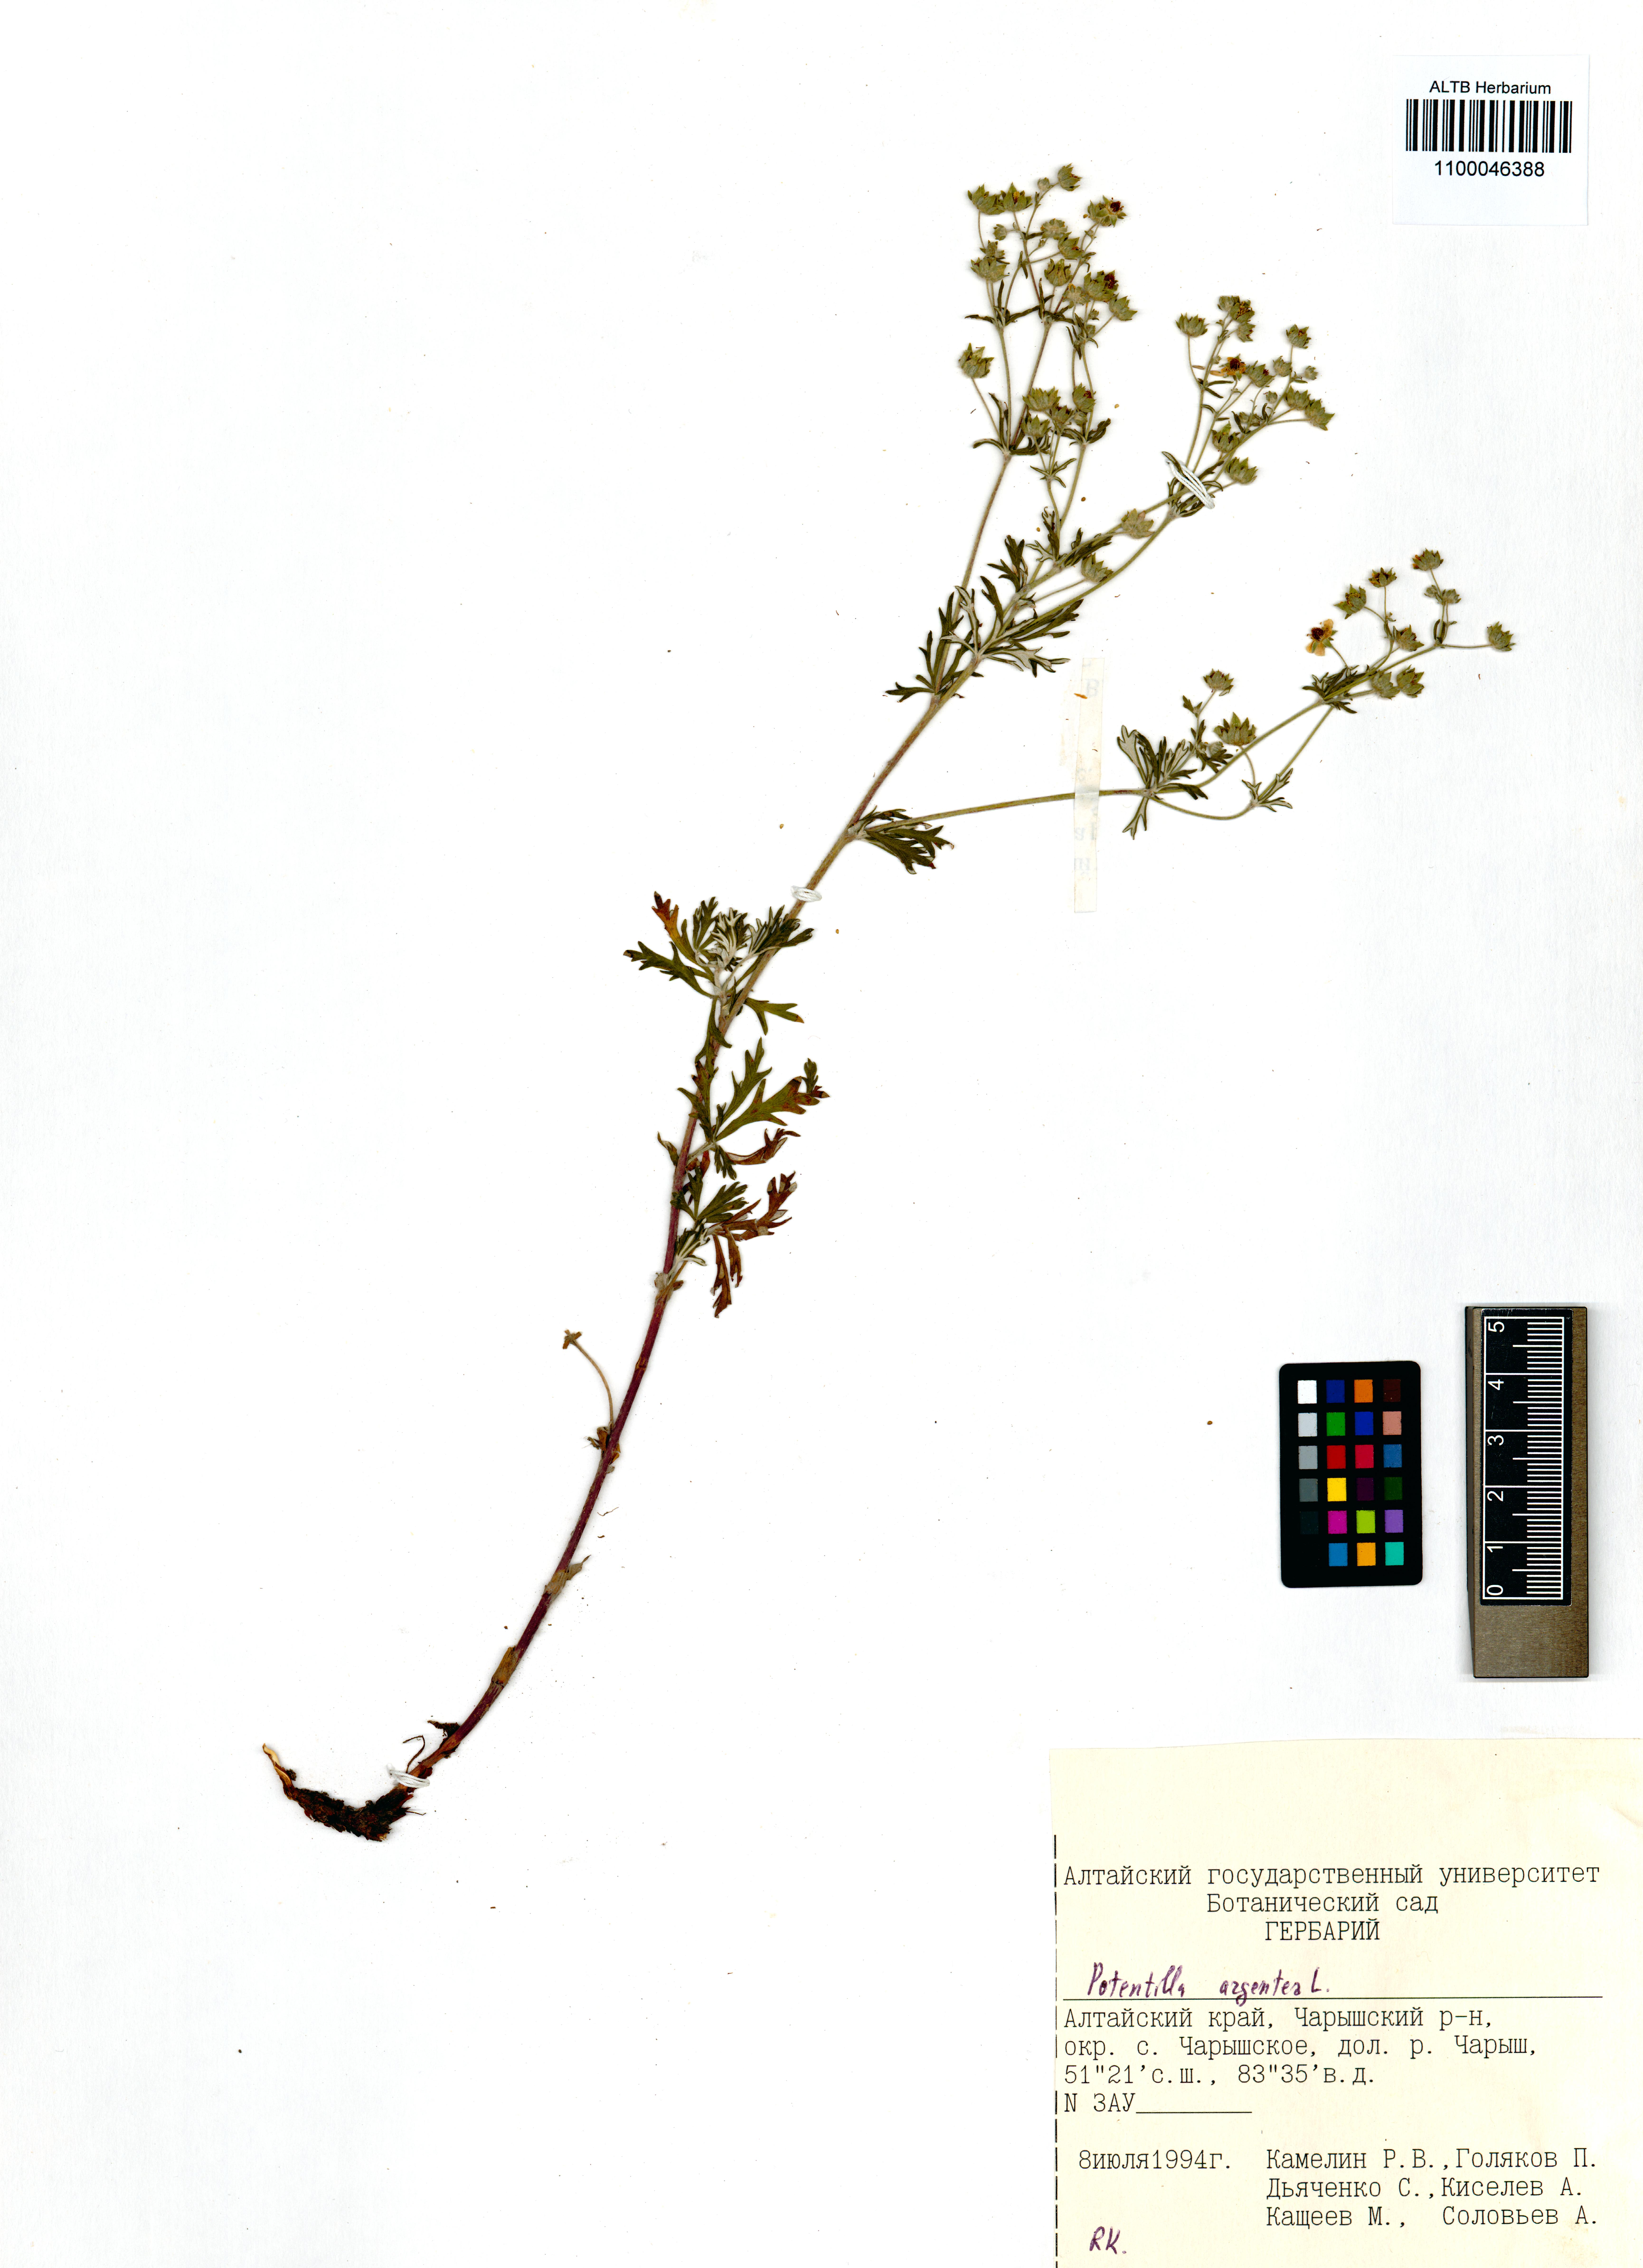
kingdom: Plantae
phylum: Tracheophyta
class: Magnoliopsida
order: Rosales
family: Rosaceae
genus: Potentilla
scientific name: Potentilla argentea
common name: Hoary cinquefoil
